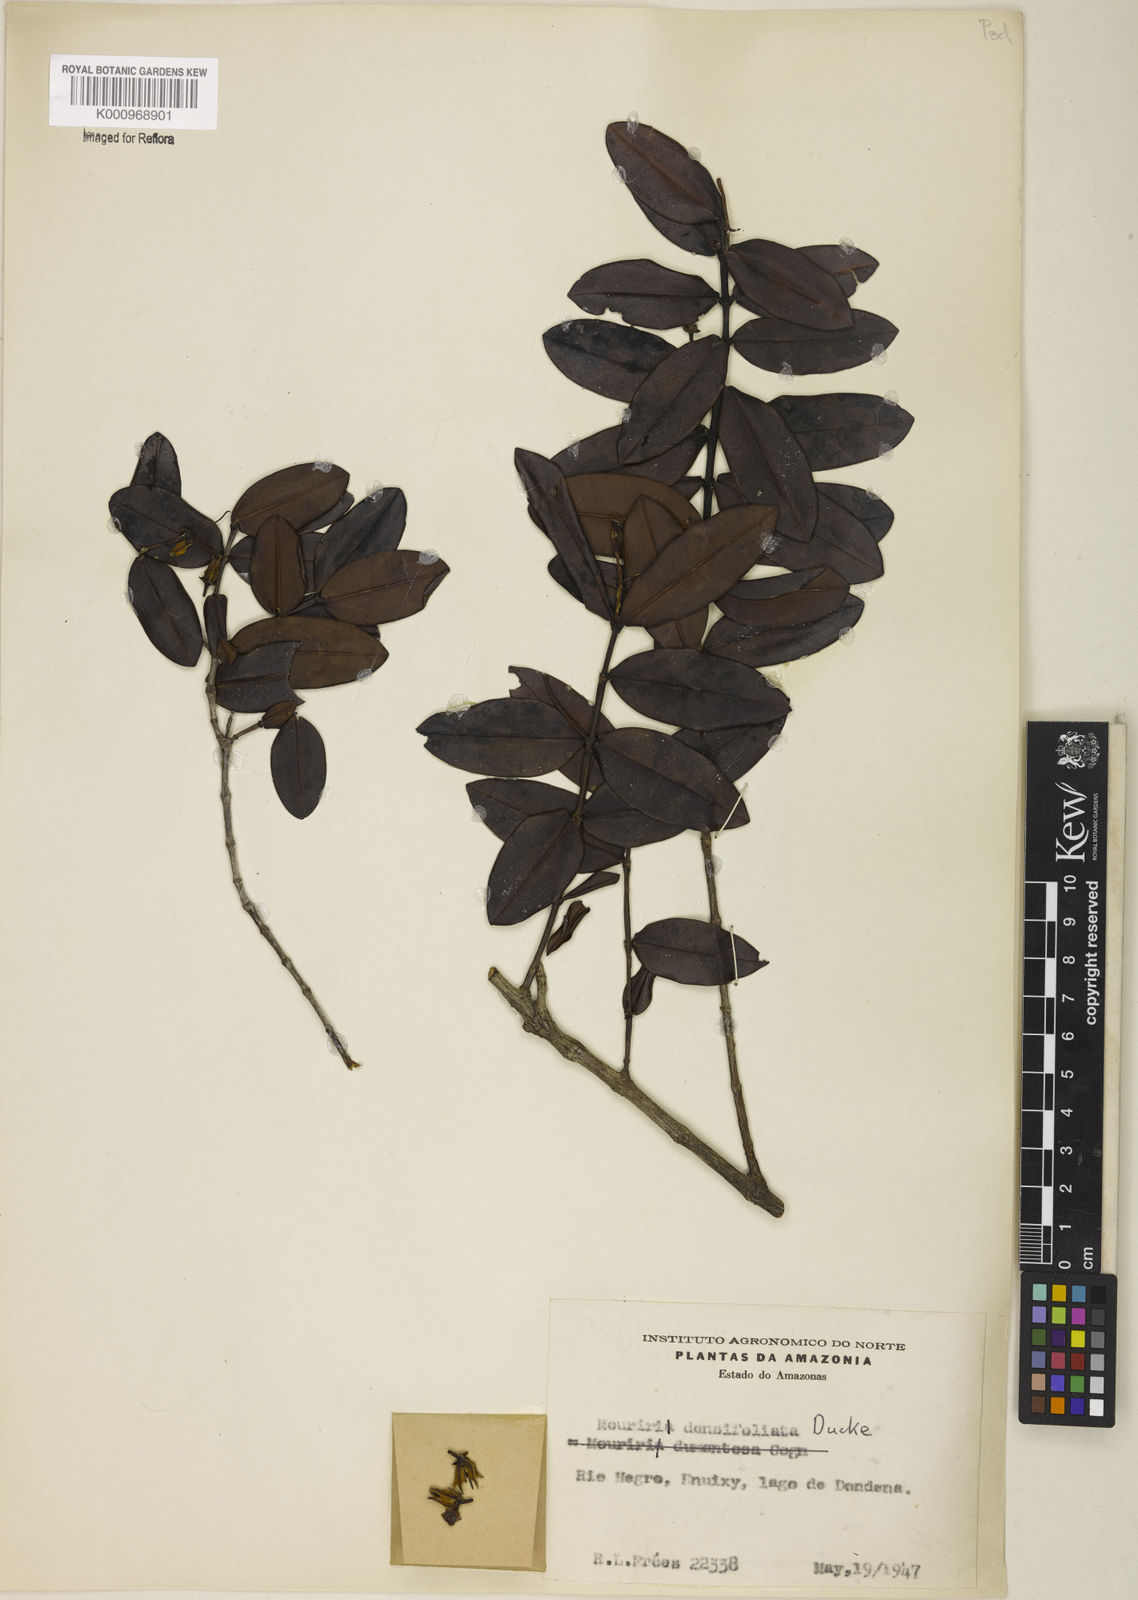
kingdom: Plantae
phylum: Tracheophyta
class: Magnoliopsida
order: Myrtales
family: Melastomataceae
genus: Mouriri
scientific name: Mouriri densifoliata
